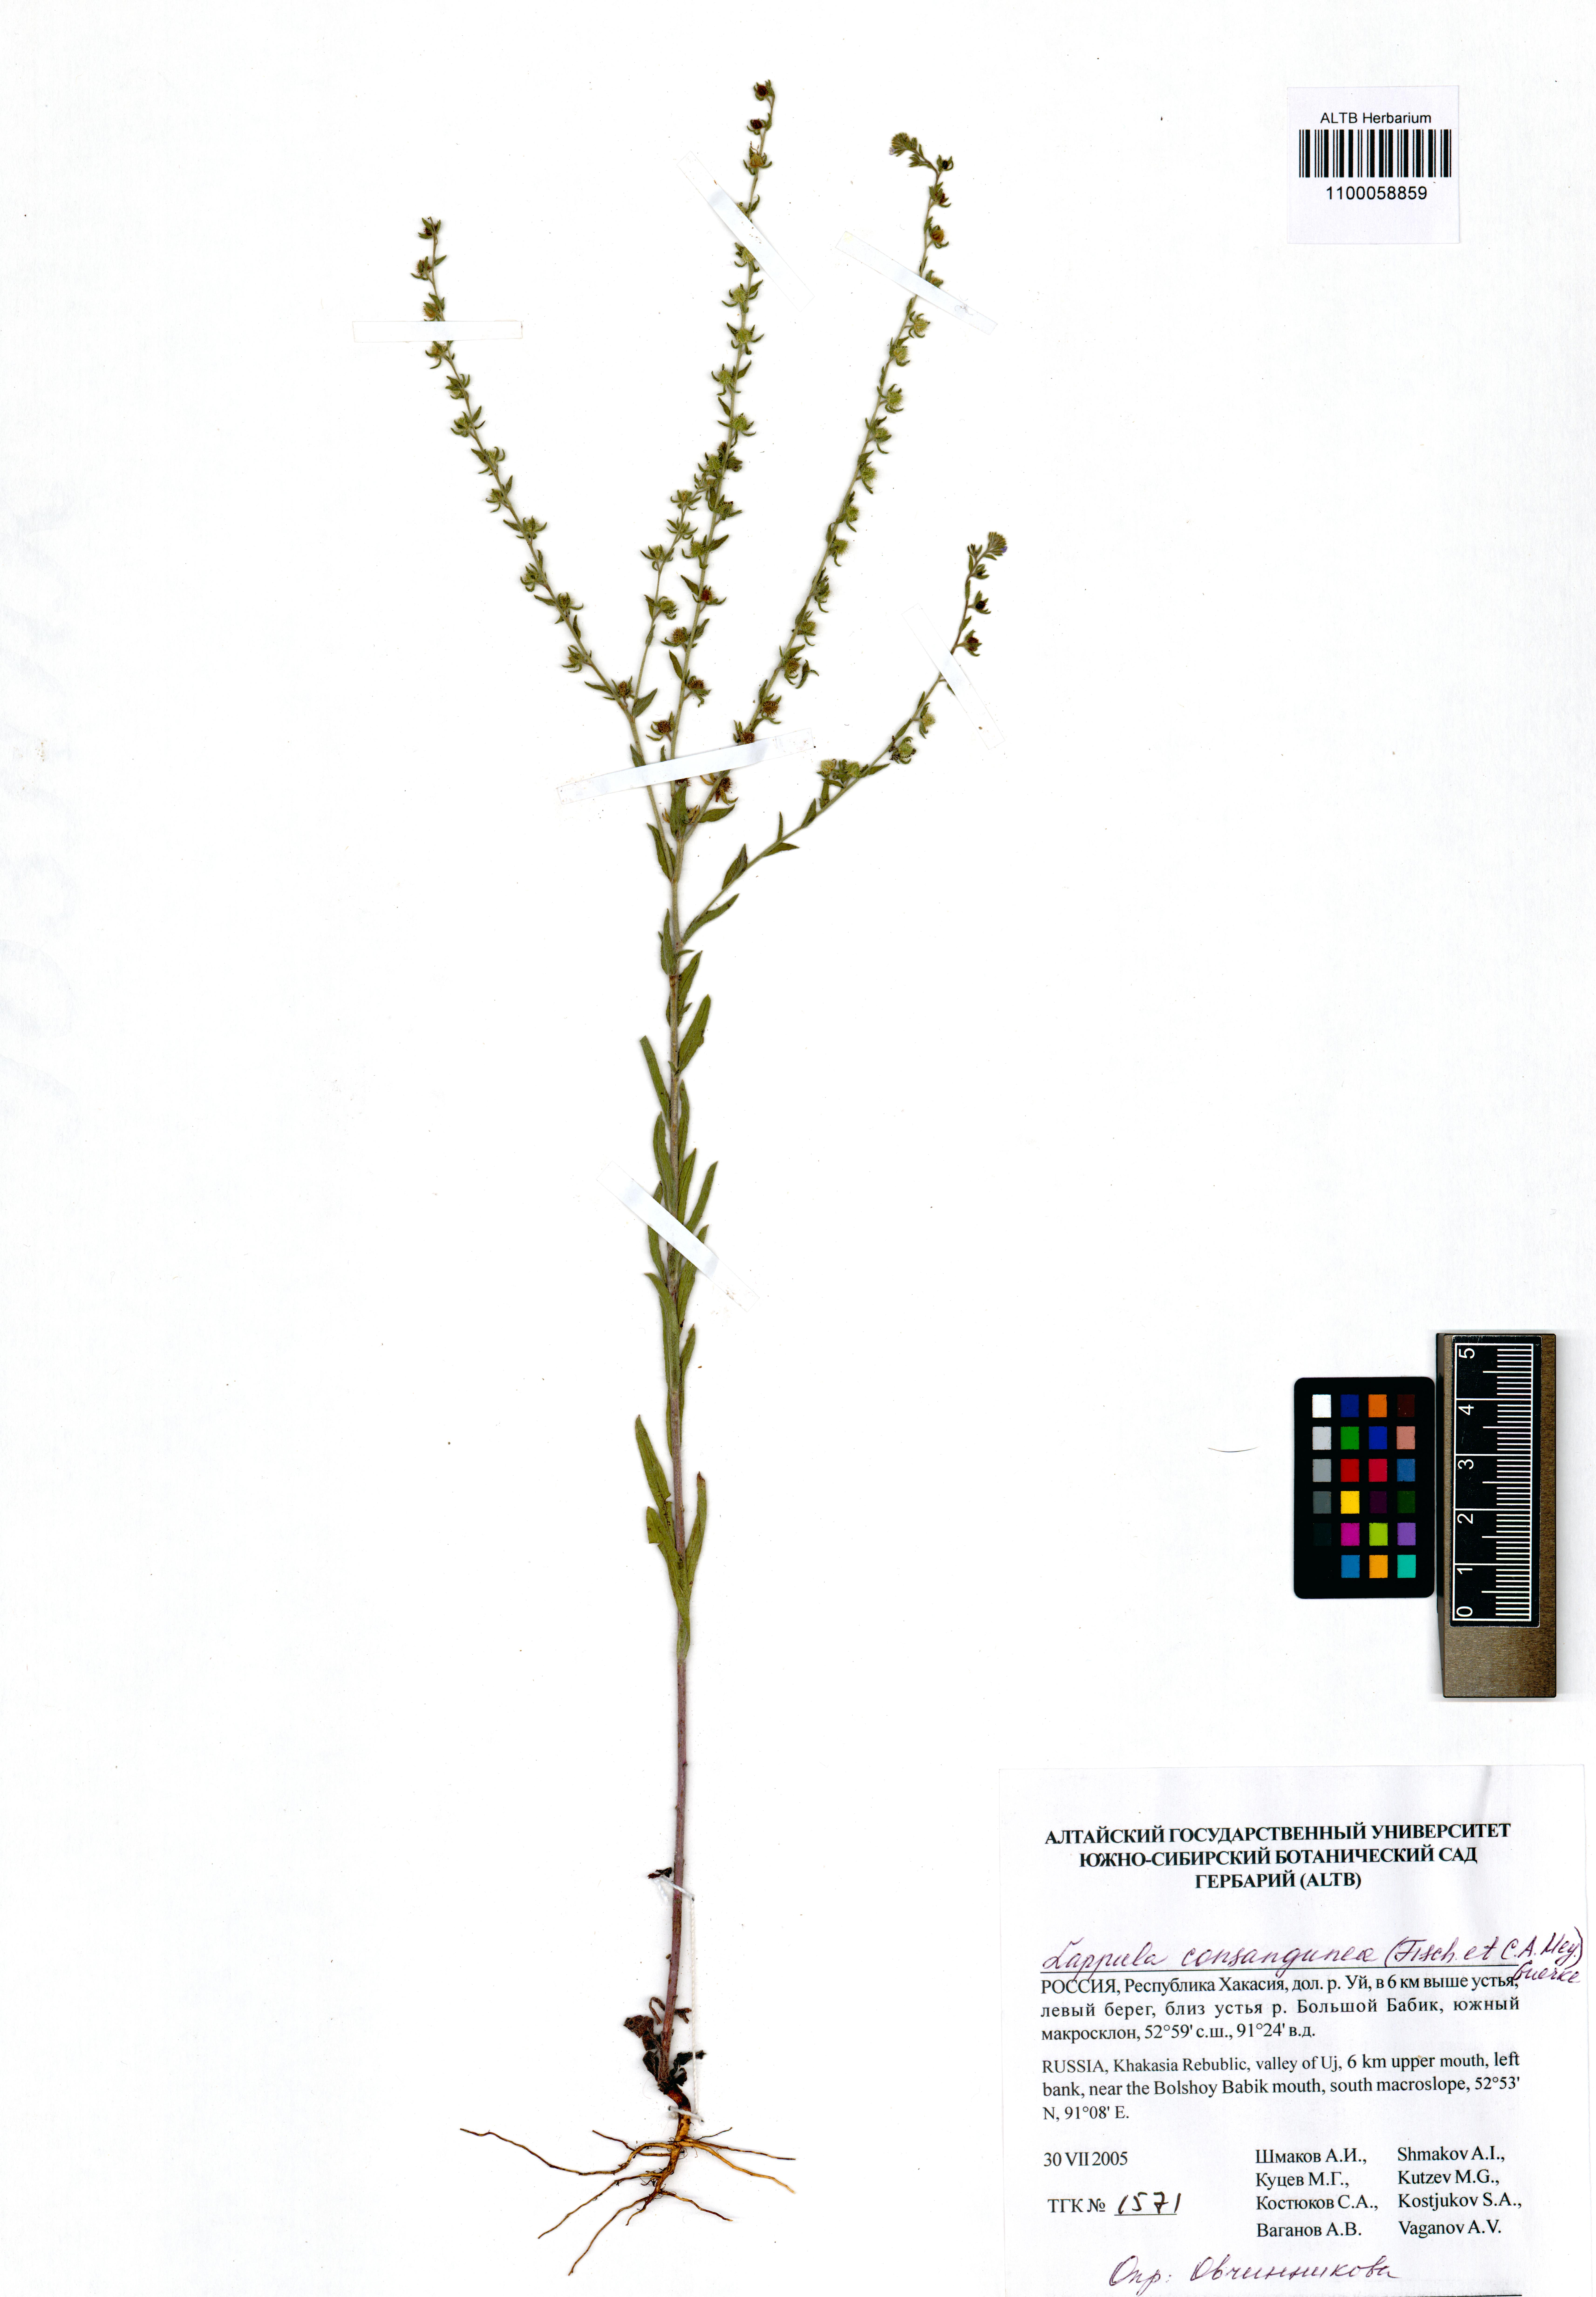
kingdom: Plantae
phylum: Tracheophyta
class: Magnoliopsida
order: Boraginales
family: Boraginaceae
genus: Lappula
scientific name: Lappula squarrosa
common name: European stickseed
